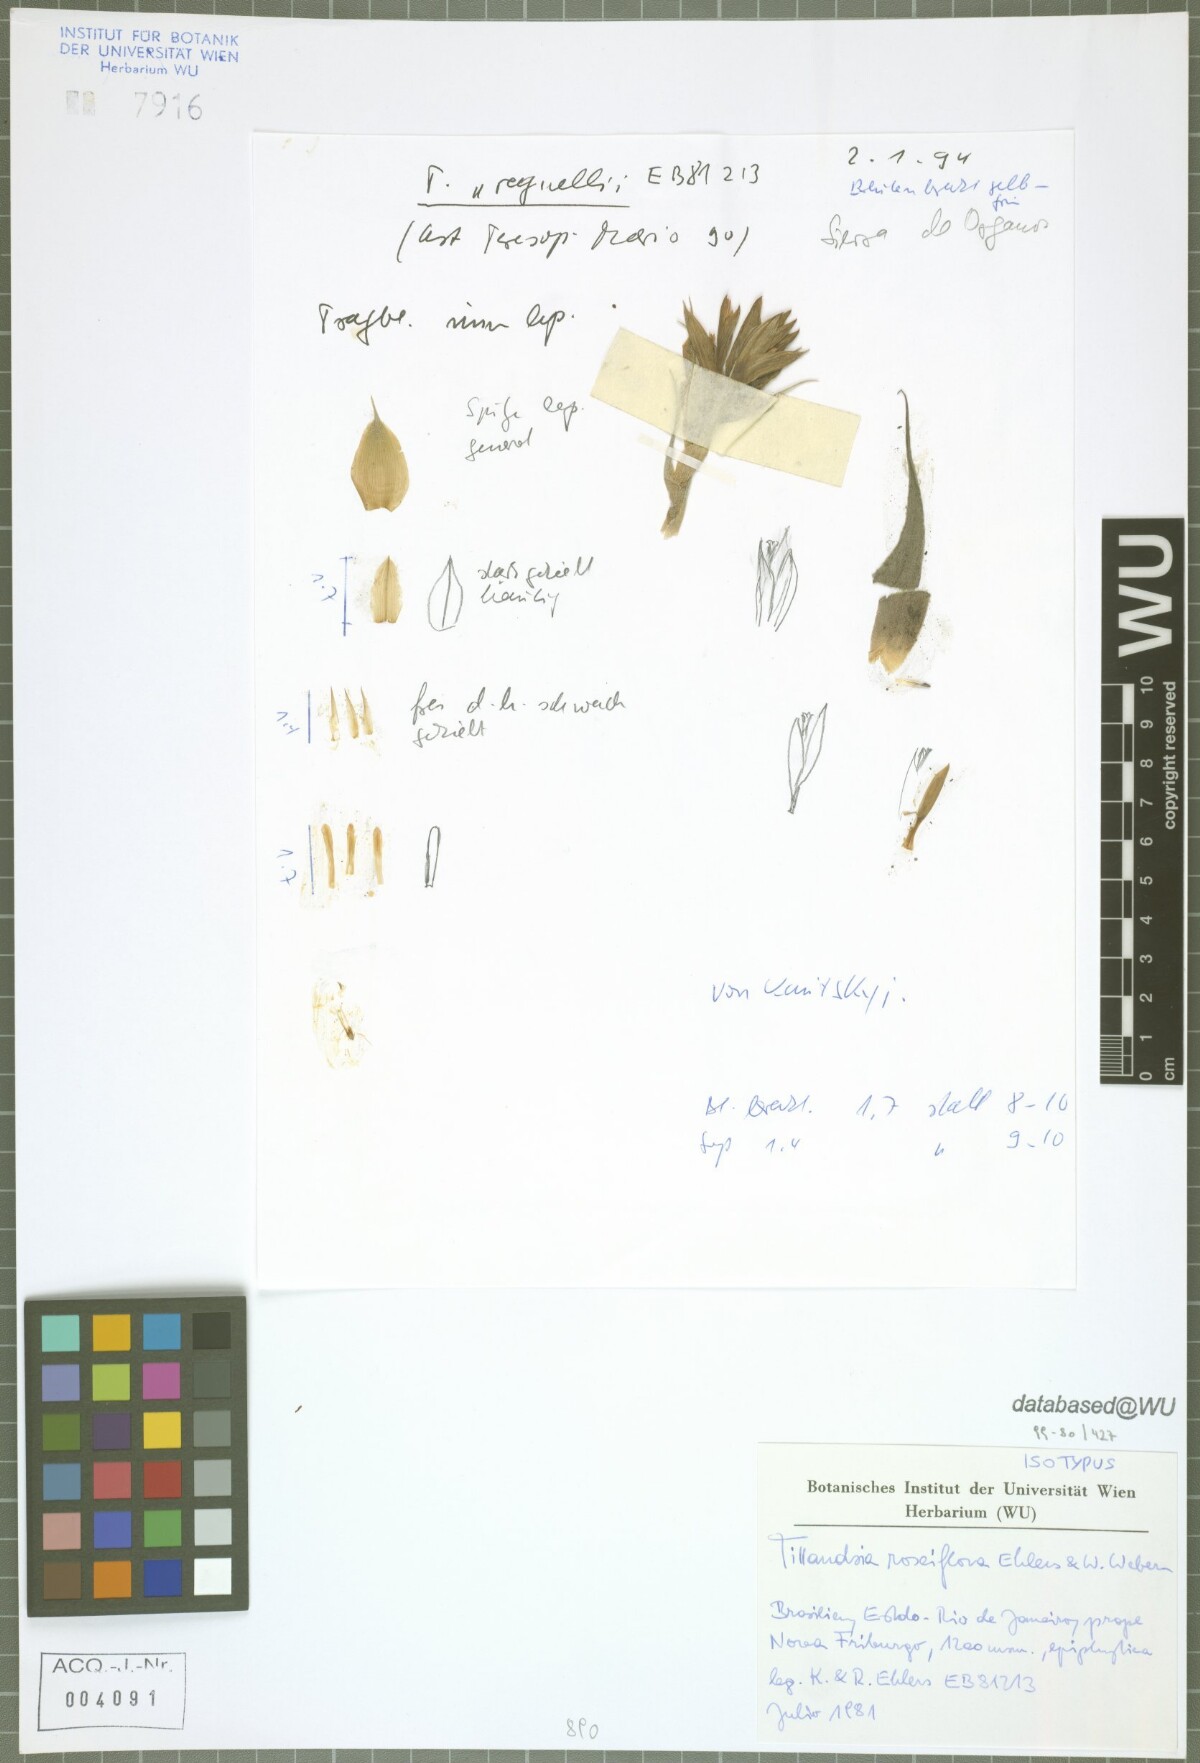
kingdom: Plantae
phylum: Tracheophyta
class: Liliopsida
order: Poales
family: Bromeliaceae
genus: Tillandsia
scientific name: Tillandsia roseiflora
